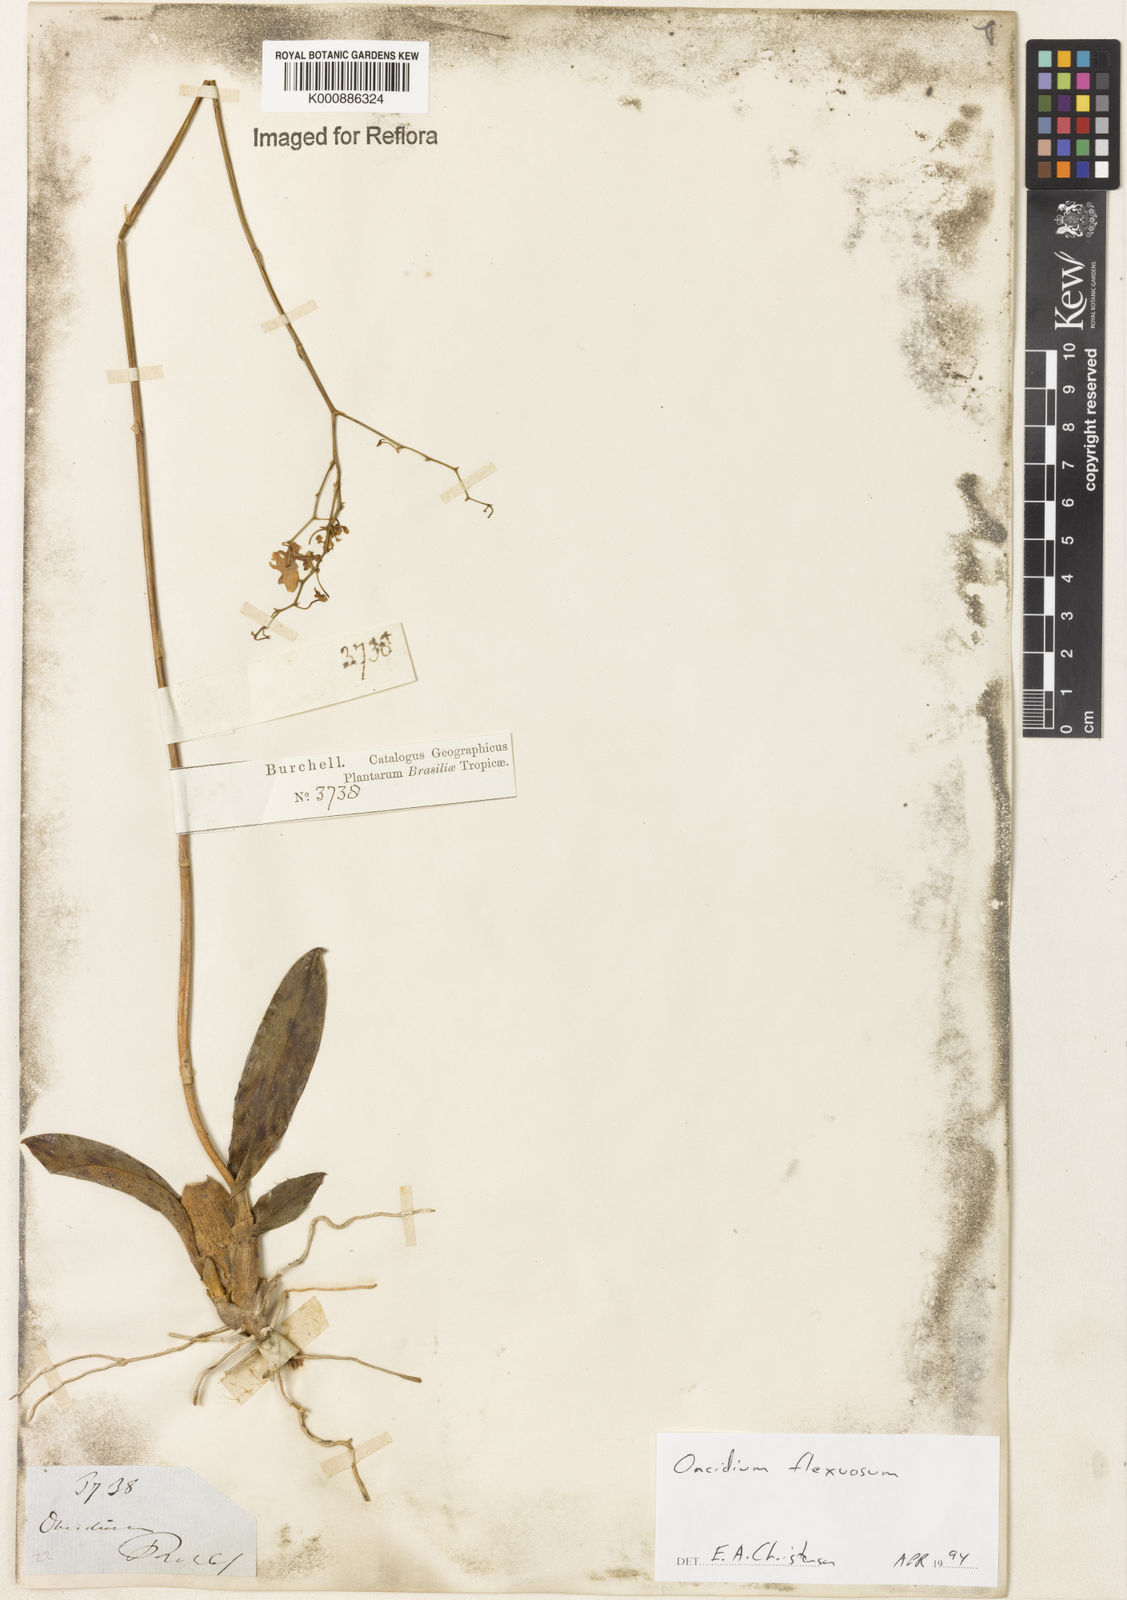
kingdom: Plantae
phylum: Tracheophyta
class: Liliopsida
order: Asparagales
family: Orchidaceae
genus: Gomesa
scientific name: Gomesa flexuosa
